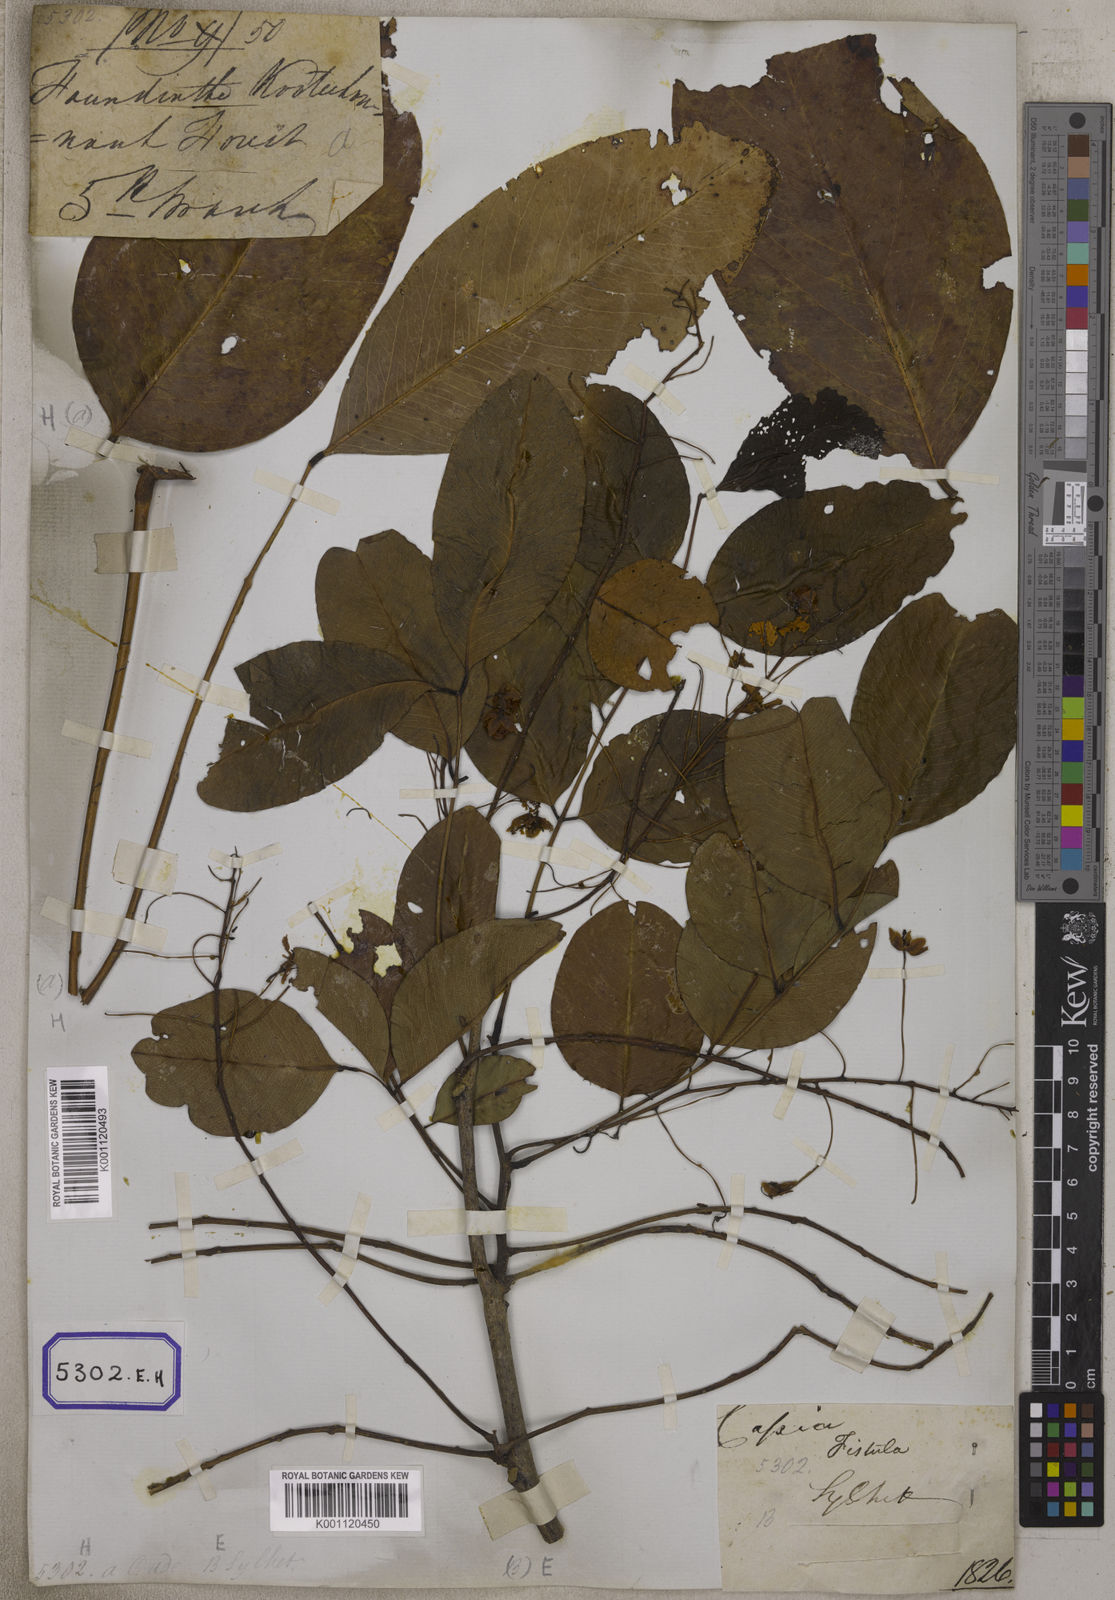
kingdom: Plantae
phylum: Tracheophyta
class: Magnoliopsida
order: Fabales
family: Fabaceae
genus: Cassia
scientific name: Cassia fistula
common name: Golden shower
